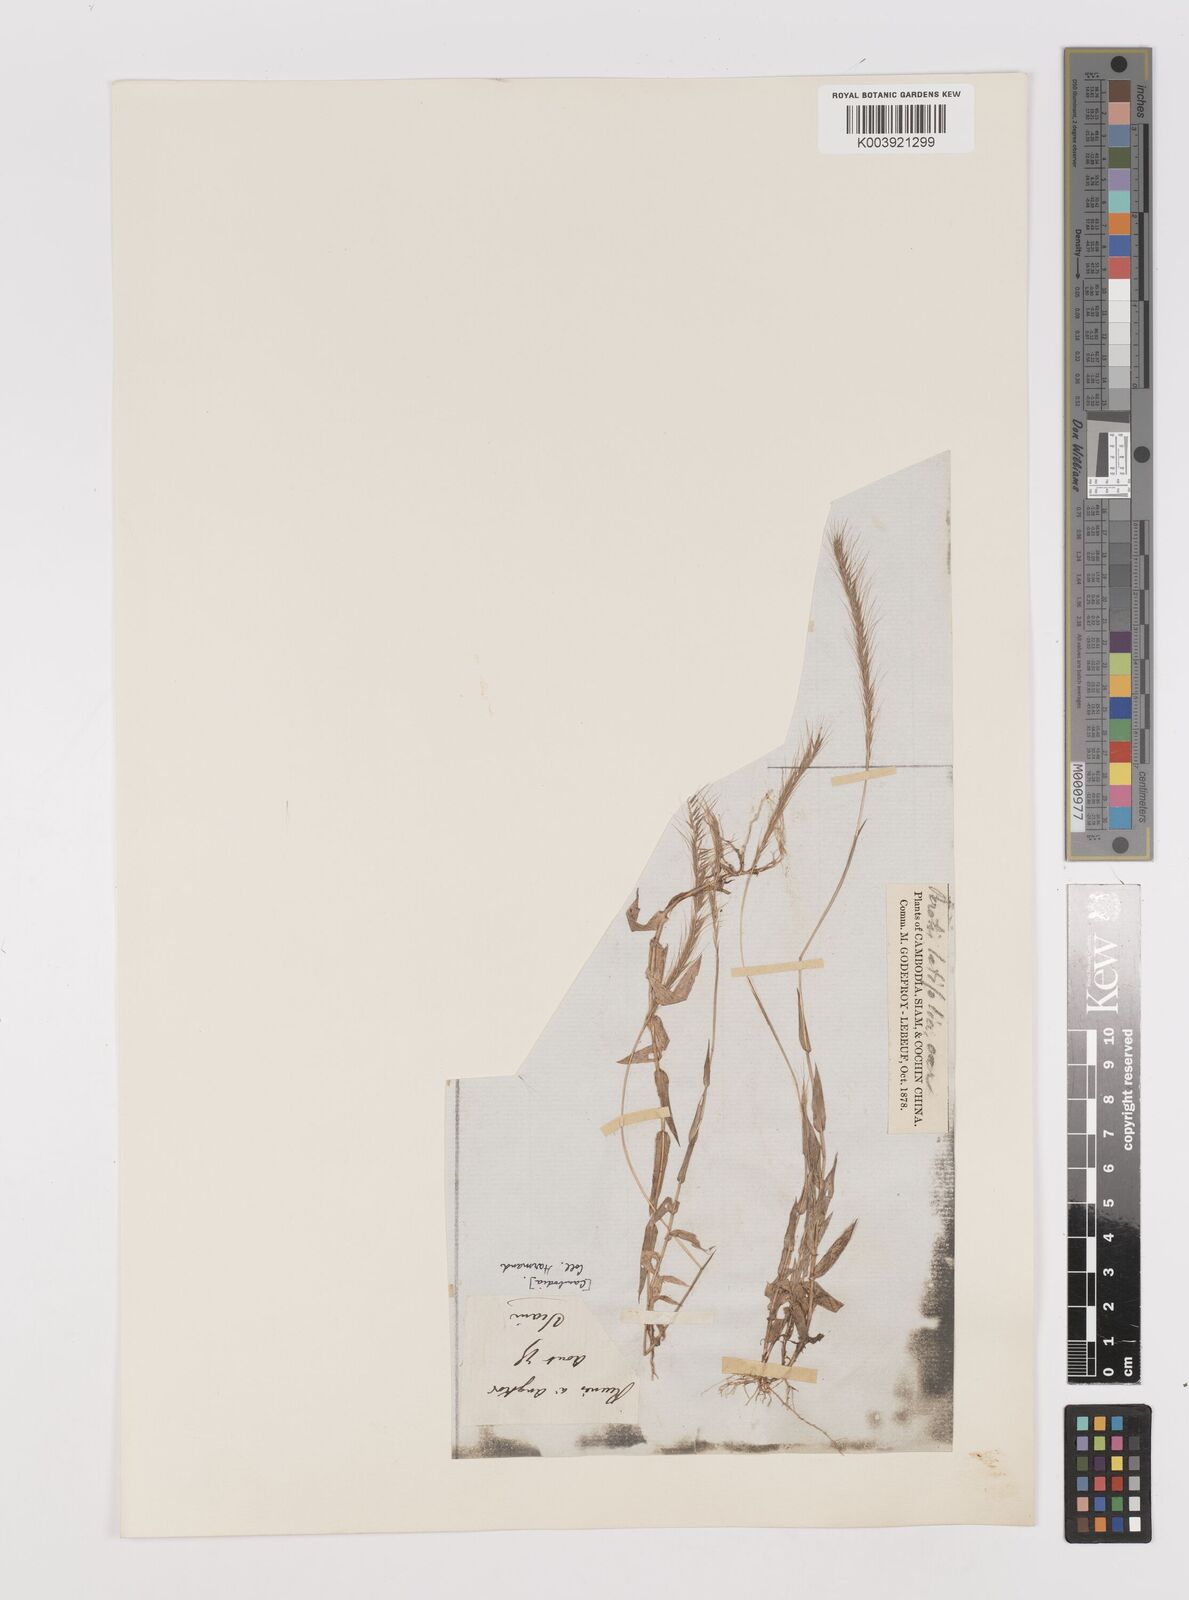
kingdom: Plantae
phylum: Tracheophyta
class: Liliopsida
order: Poales
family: Poaceae
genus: Perotis
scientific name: Perotis hordeiformis
